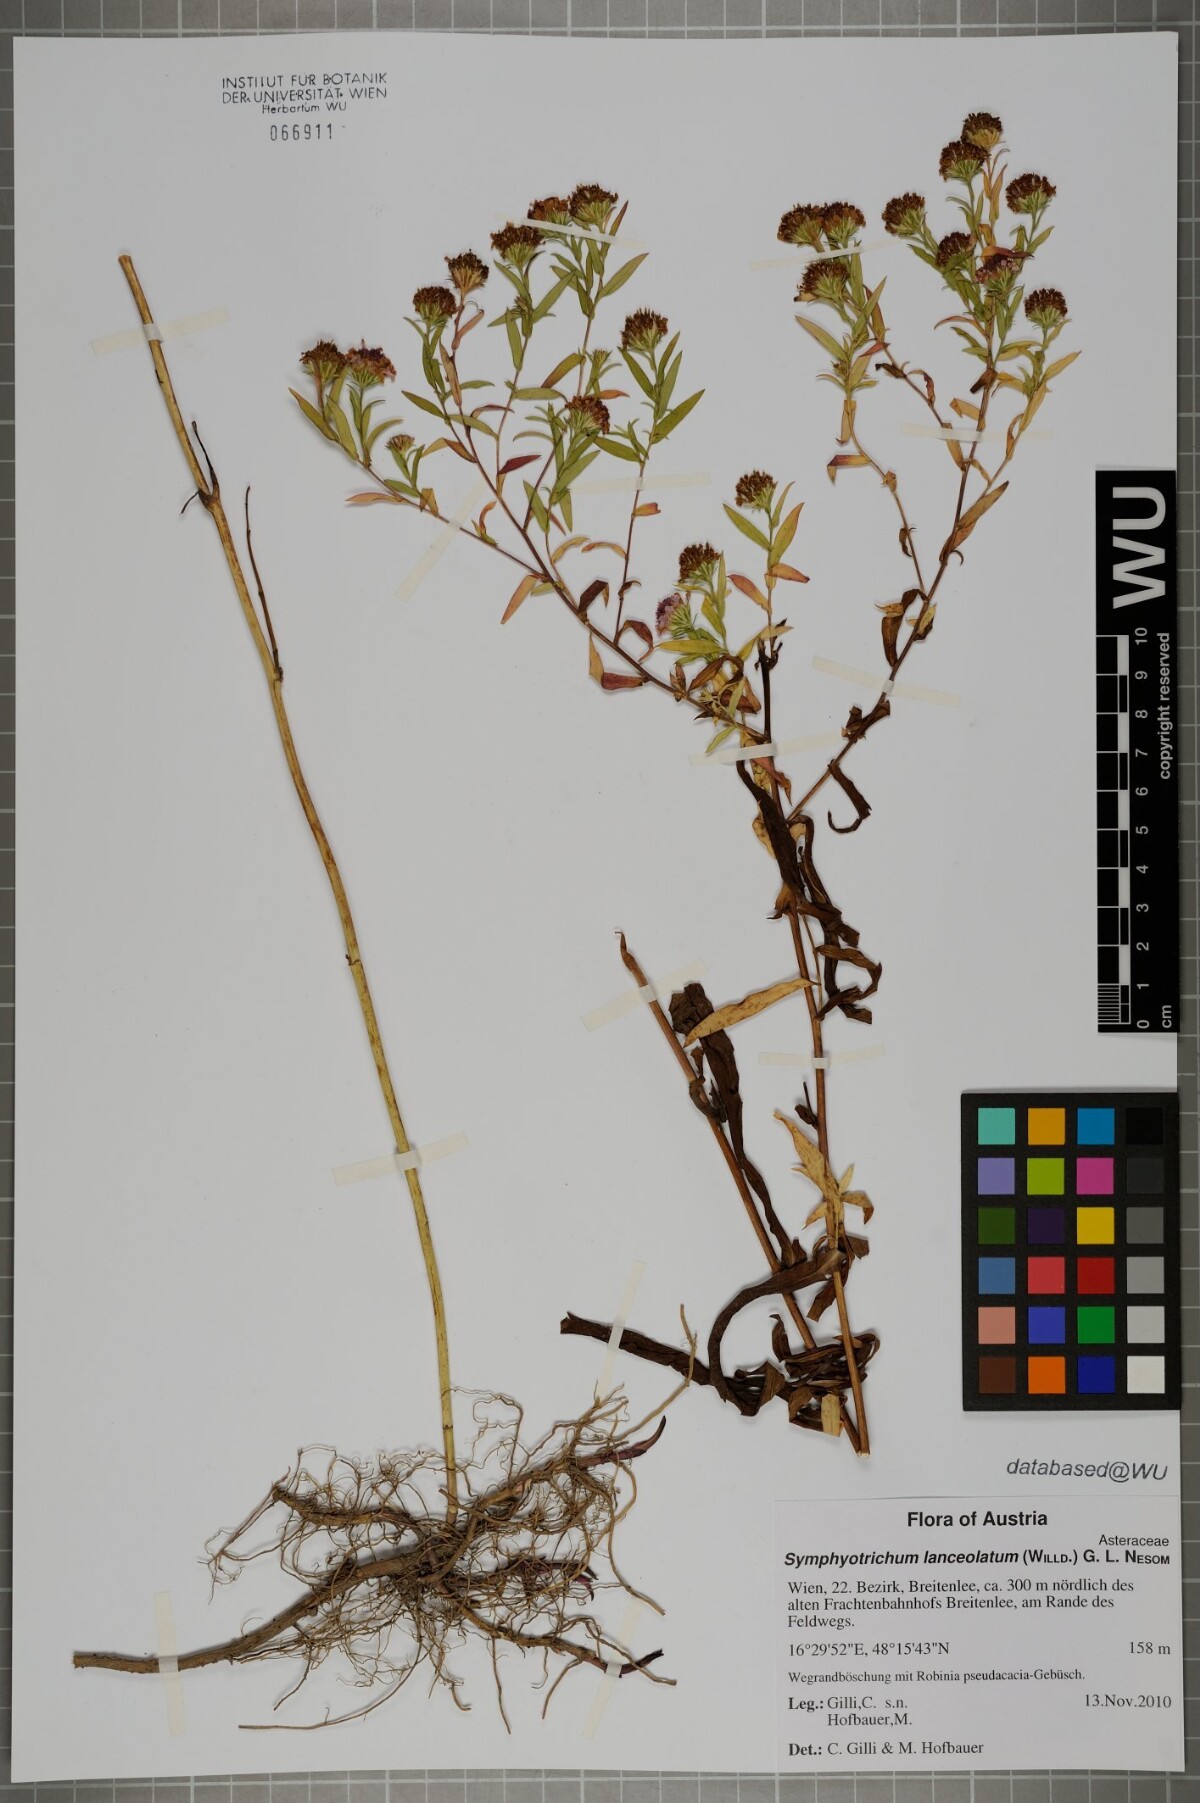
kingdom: Plantae
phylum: Tracheophyta
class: Magnoliopsida
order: Asterales
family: Asteraceae
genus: Symphyotrichum
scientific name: Symphyotrichum lanceolatum
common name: Panicled aster
